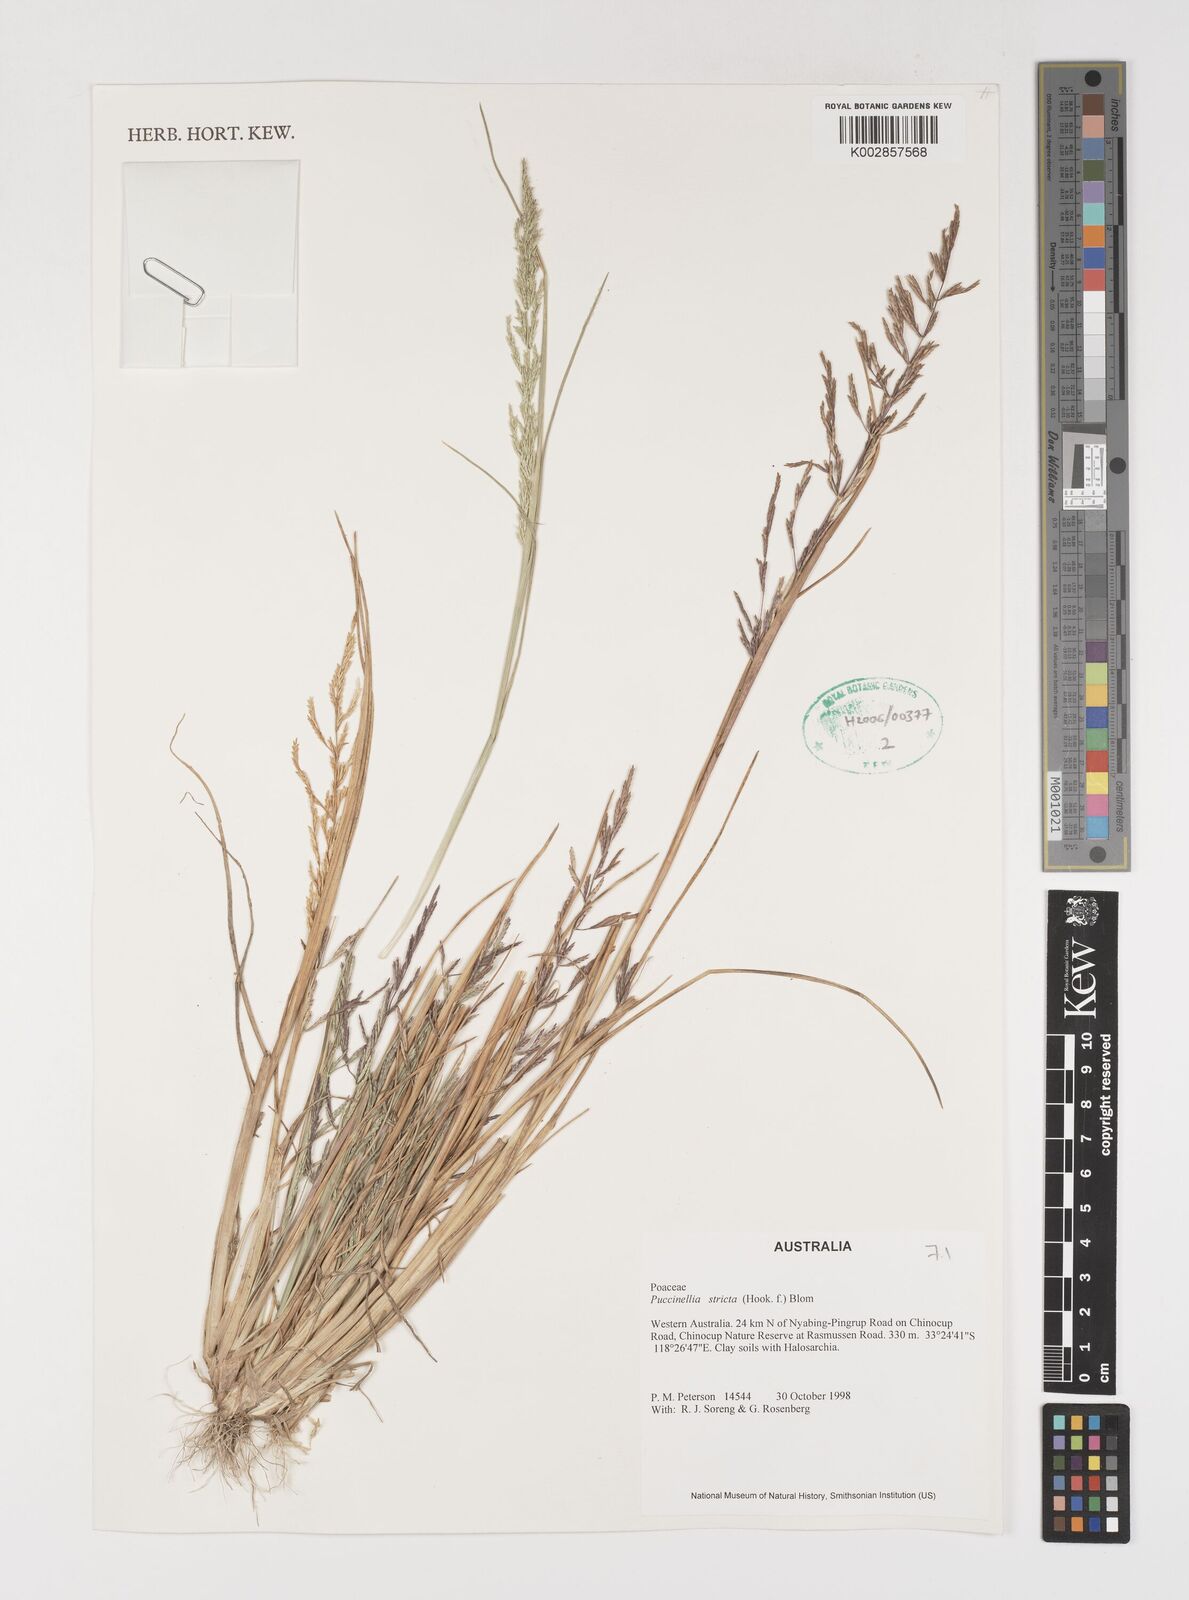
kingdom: Plantae
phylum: Tracheophyta
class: Liliopsida
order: Poales
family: Poaceae
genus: Puccinellia
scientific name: Puccinellia stricta
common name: Australian saltmarsh grass
